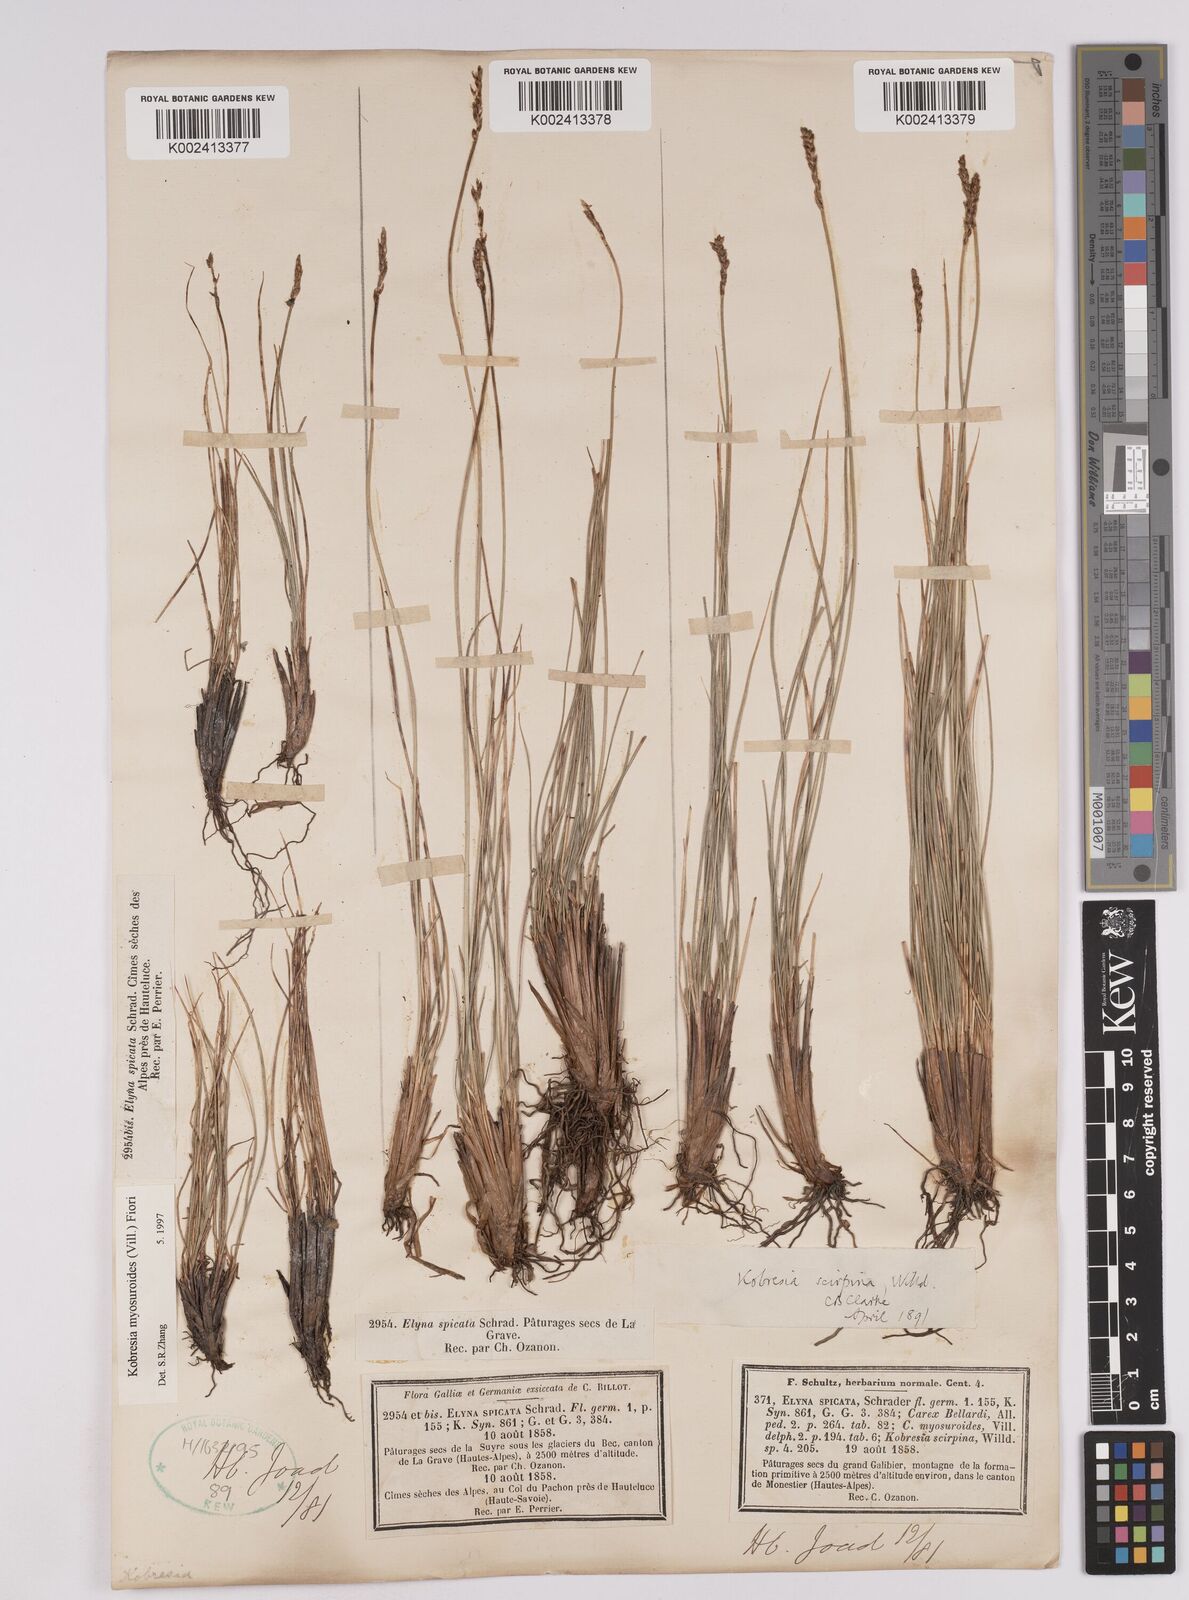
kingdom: Plantae
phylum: Tracheophyta
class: Liliopsida
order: Poales
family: Cyperaceae
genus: Carex
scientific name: Carex myosuroides
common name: Bellard's bog sedge
